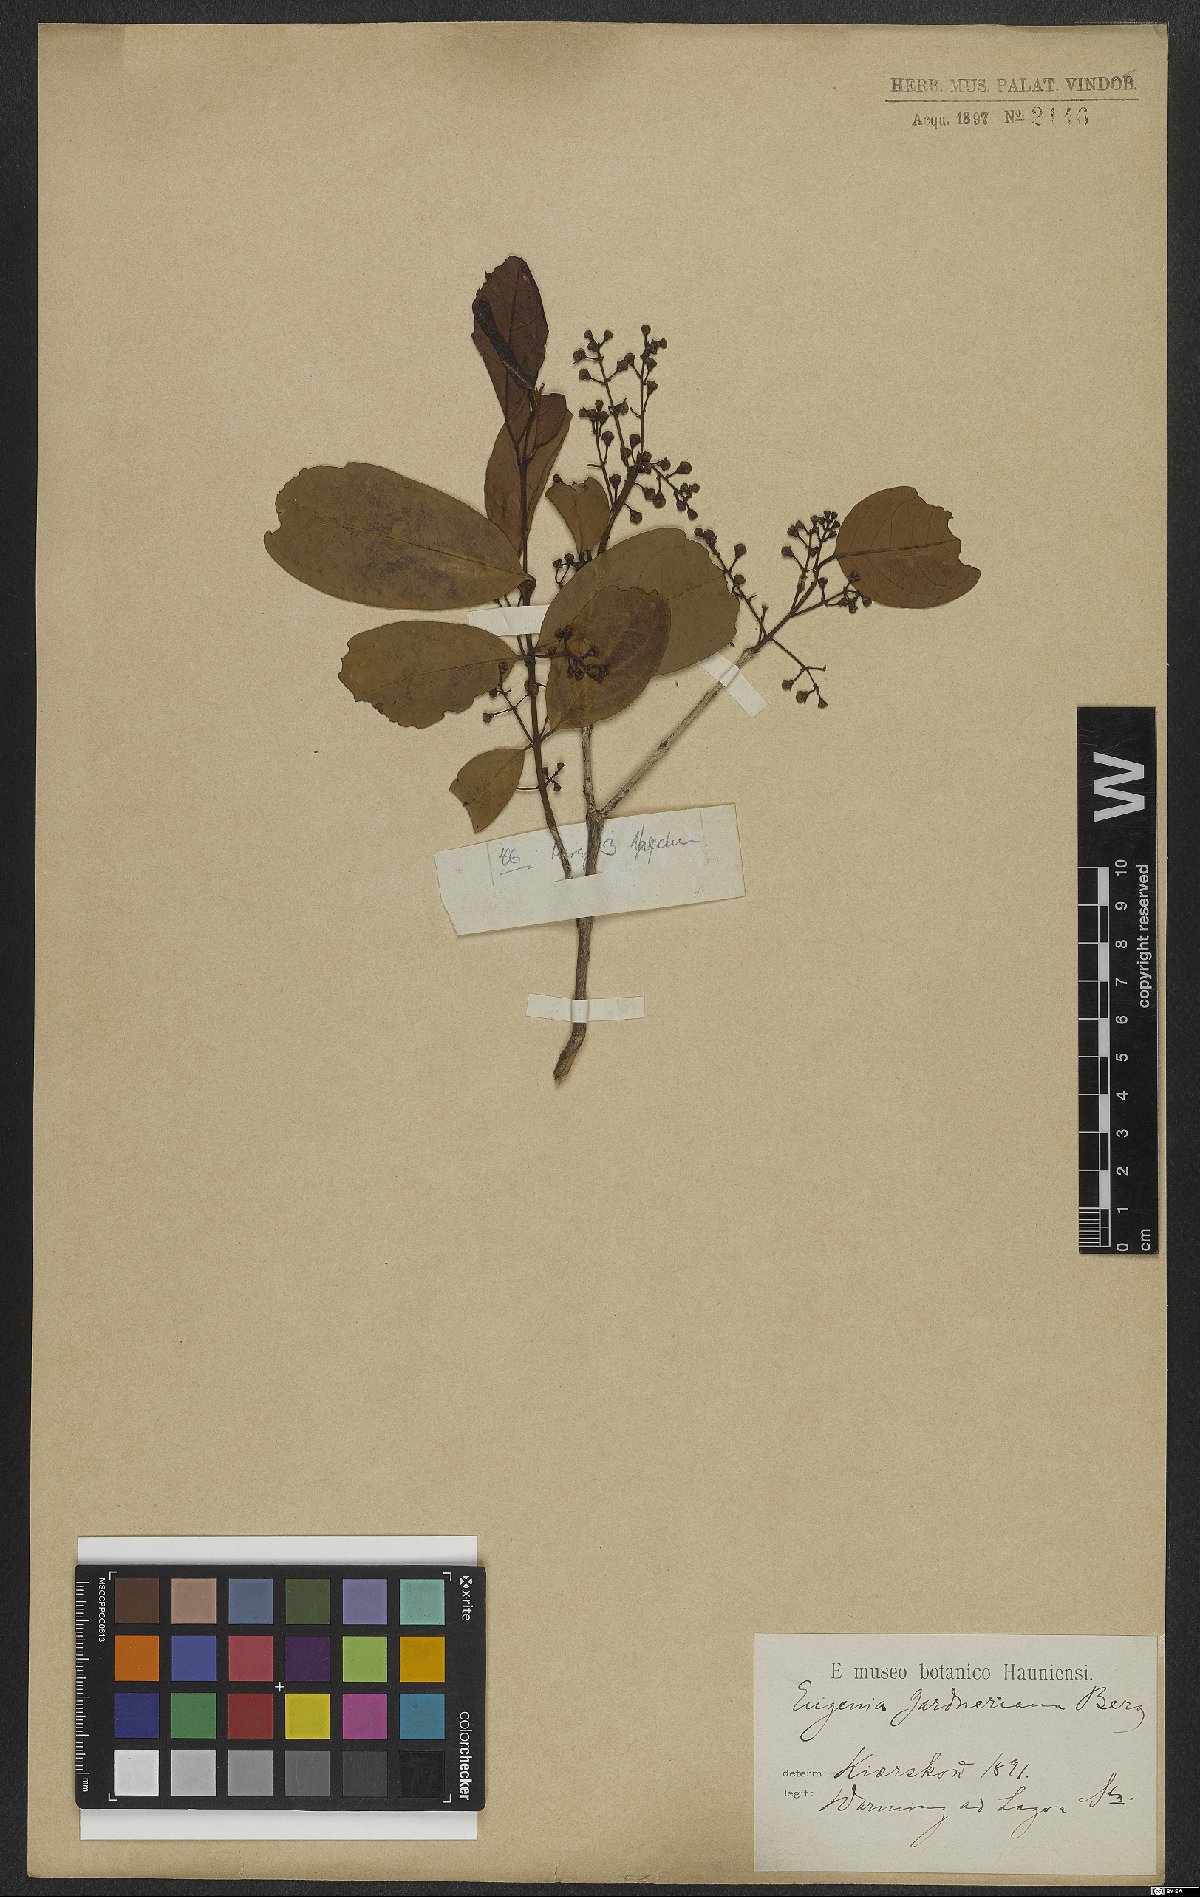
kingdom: Plantae
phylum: Tracheophyta
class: Magnoliopsida
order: Myrtales
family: Myrtaceae
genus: Eugenia
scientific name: Eugenia florida
